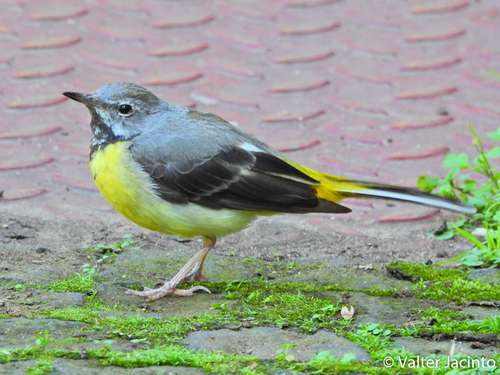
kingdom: Animalia
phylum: Chordata
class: Aves
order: Passeriformes
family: Motacillidae
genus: Motacilla
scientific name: Motacilla cinerea
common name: Grey wagtail
